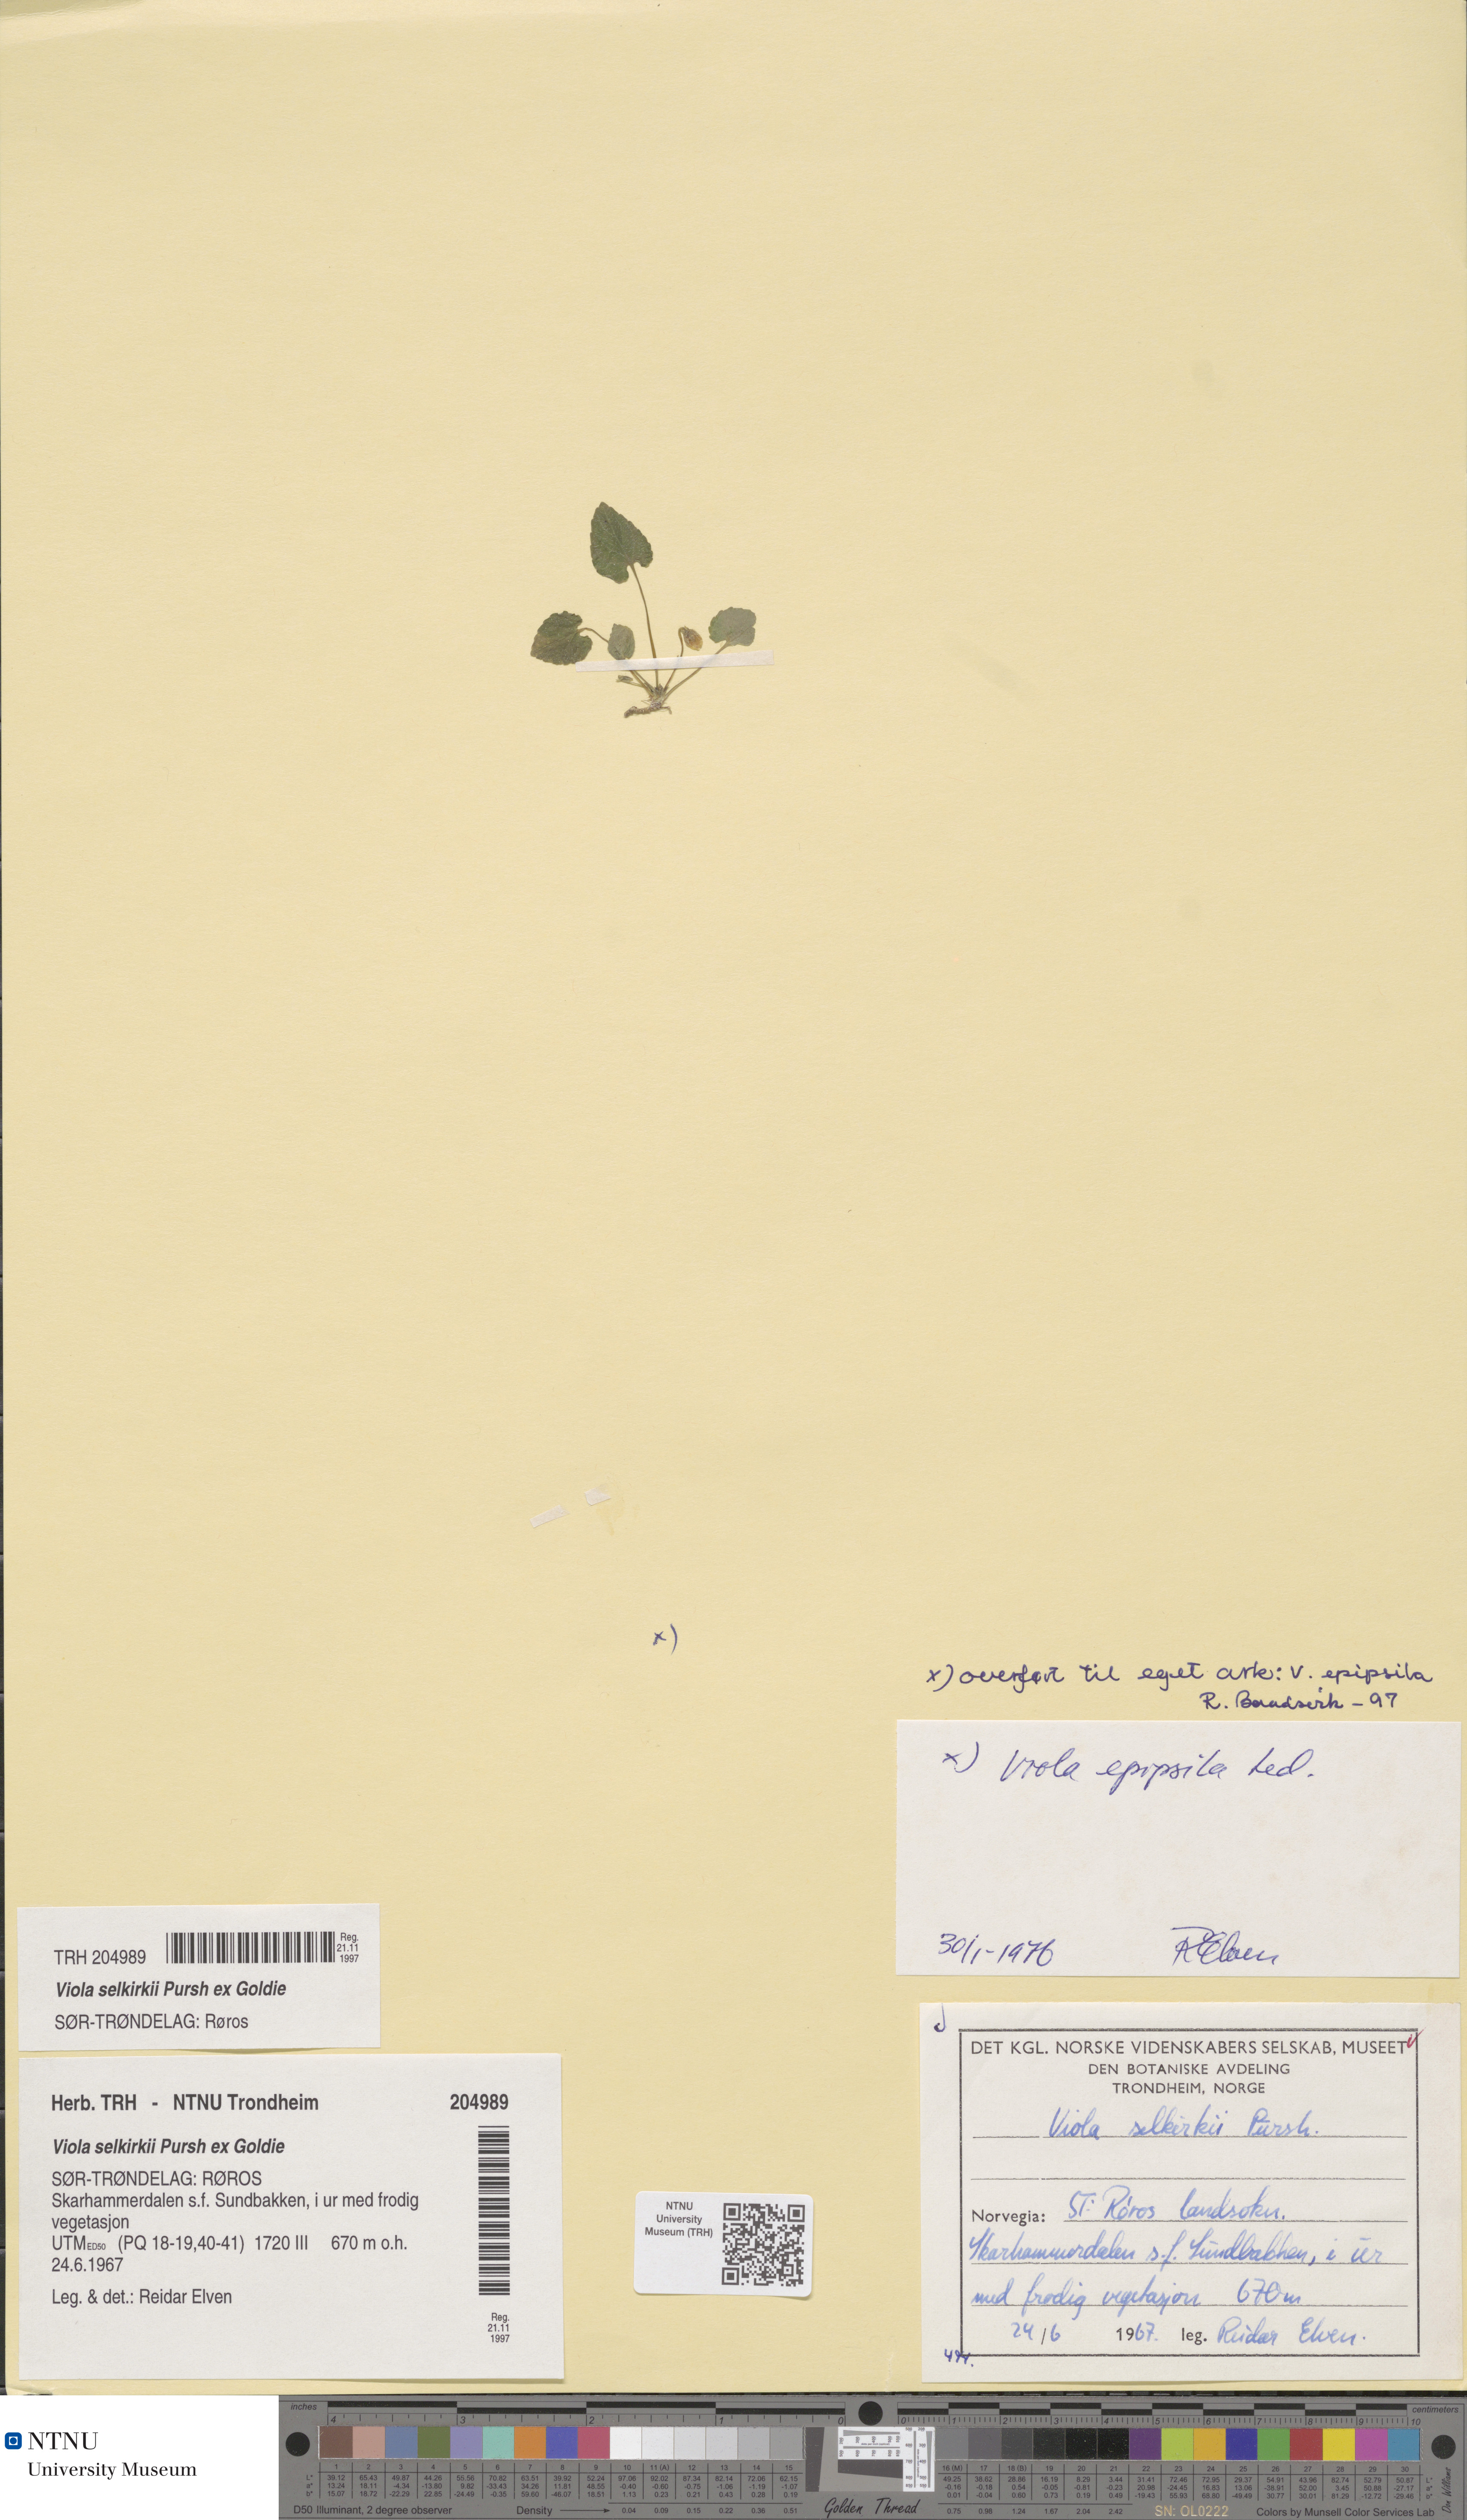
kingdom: Plantae
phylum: Tracheophyta
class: Magnoliopsida
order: Malpighiales
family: Violaceae
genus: Viola
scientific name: Viola selkirkii
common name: Selkirk's violet
